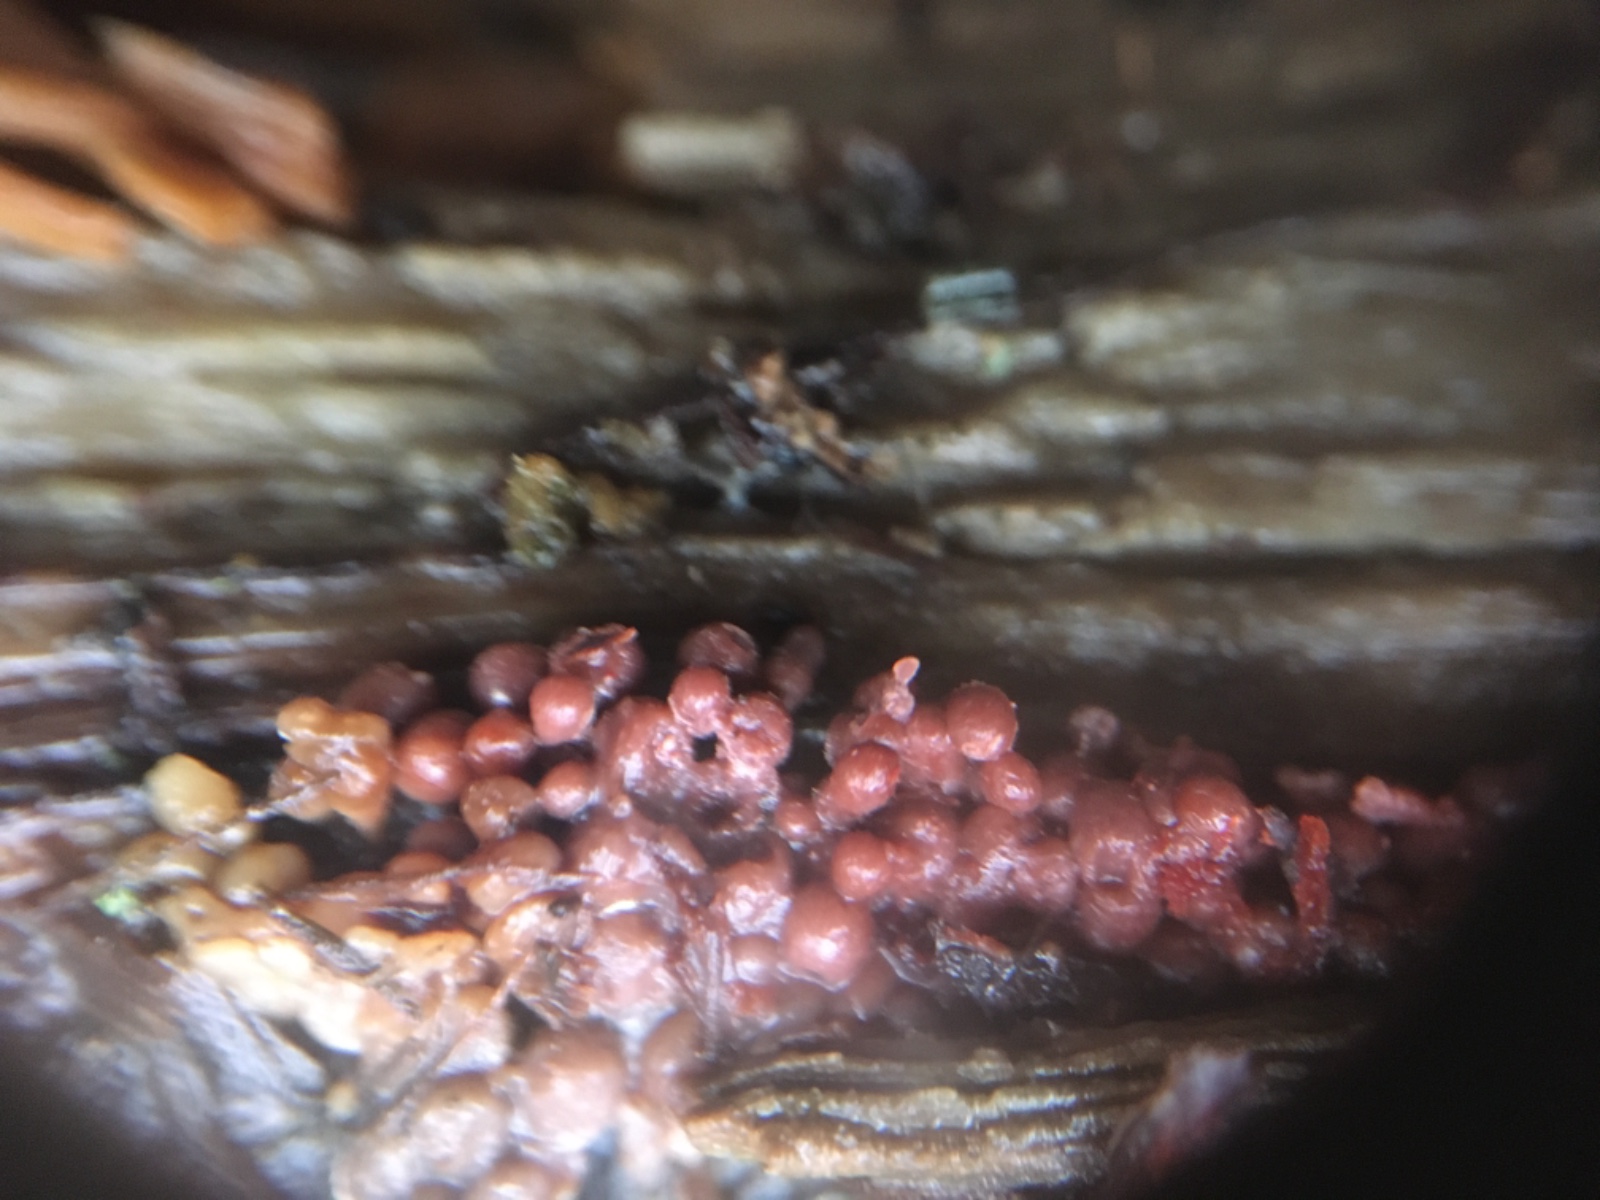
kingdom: Protozoa
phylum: Amoebozoa
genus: Arcyria
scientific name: Arcyria
